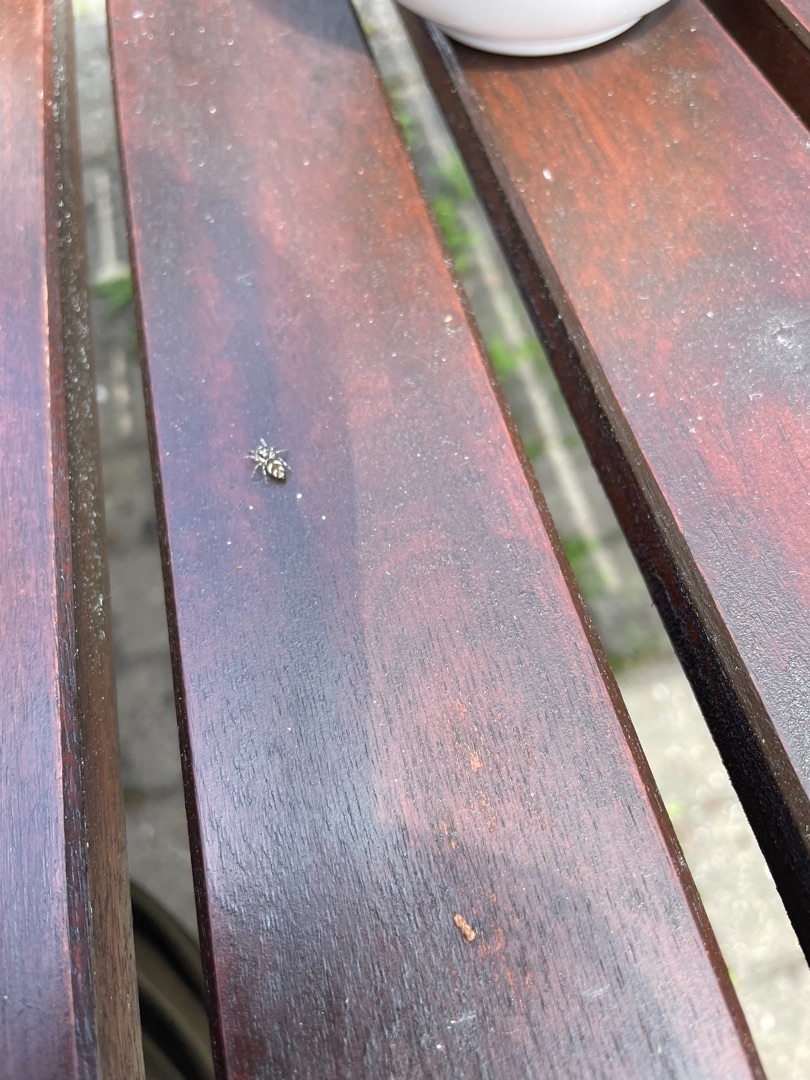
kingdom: Animalia
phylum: Arthropoda
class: Arachnida
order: Araneae
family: Salticidae
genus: Salticus
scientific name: Salticus scenicus
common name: Almindelig zebraedderkop
